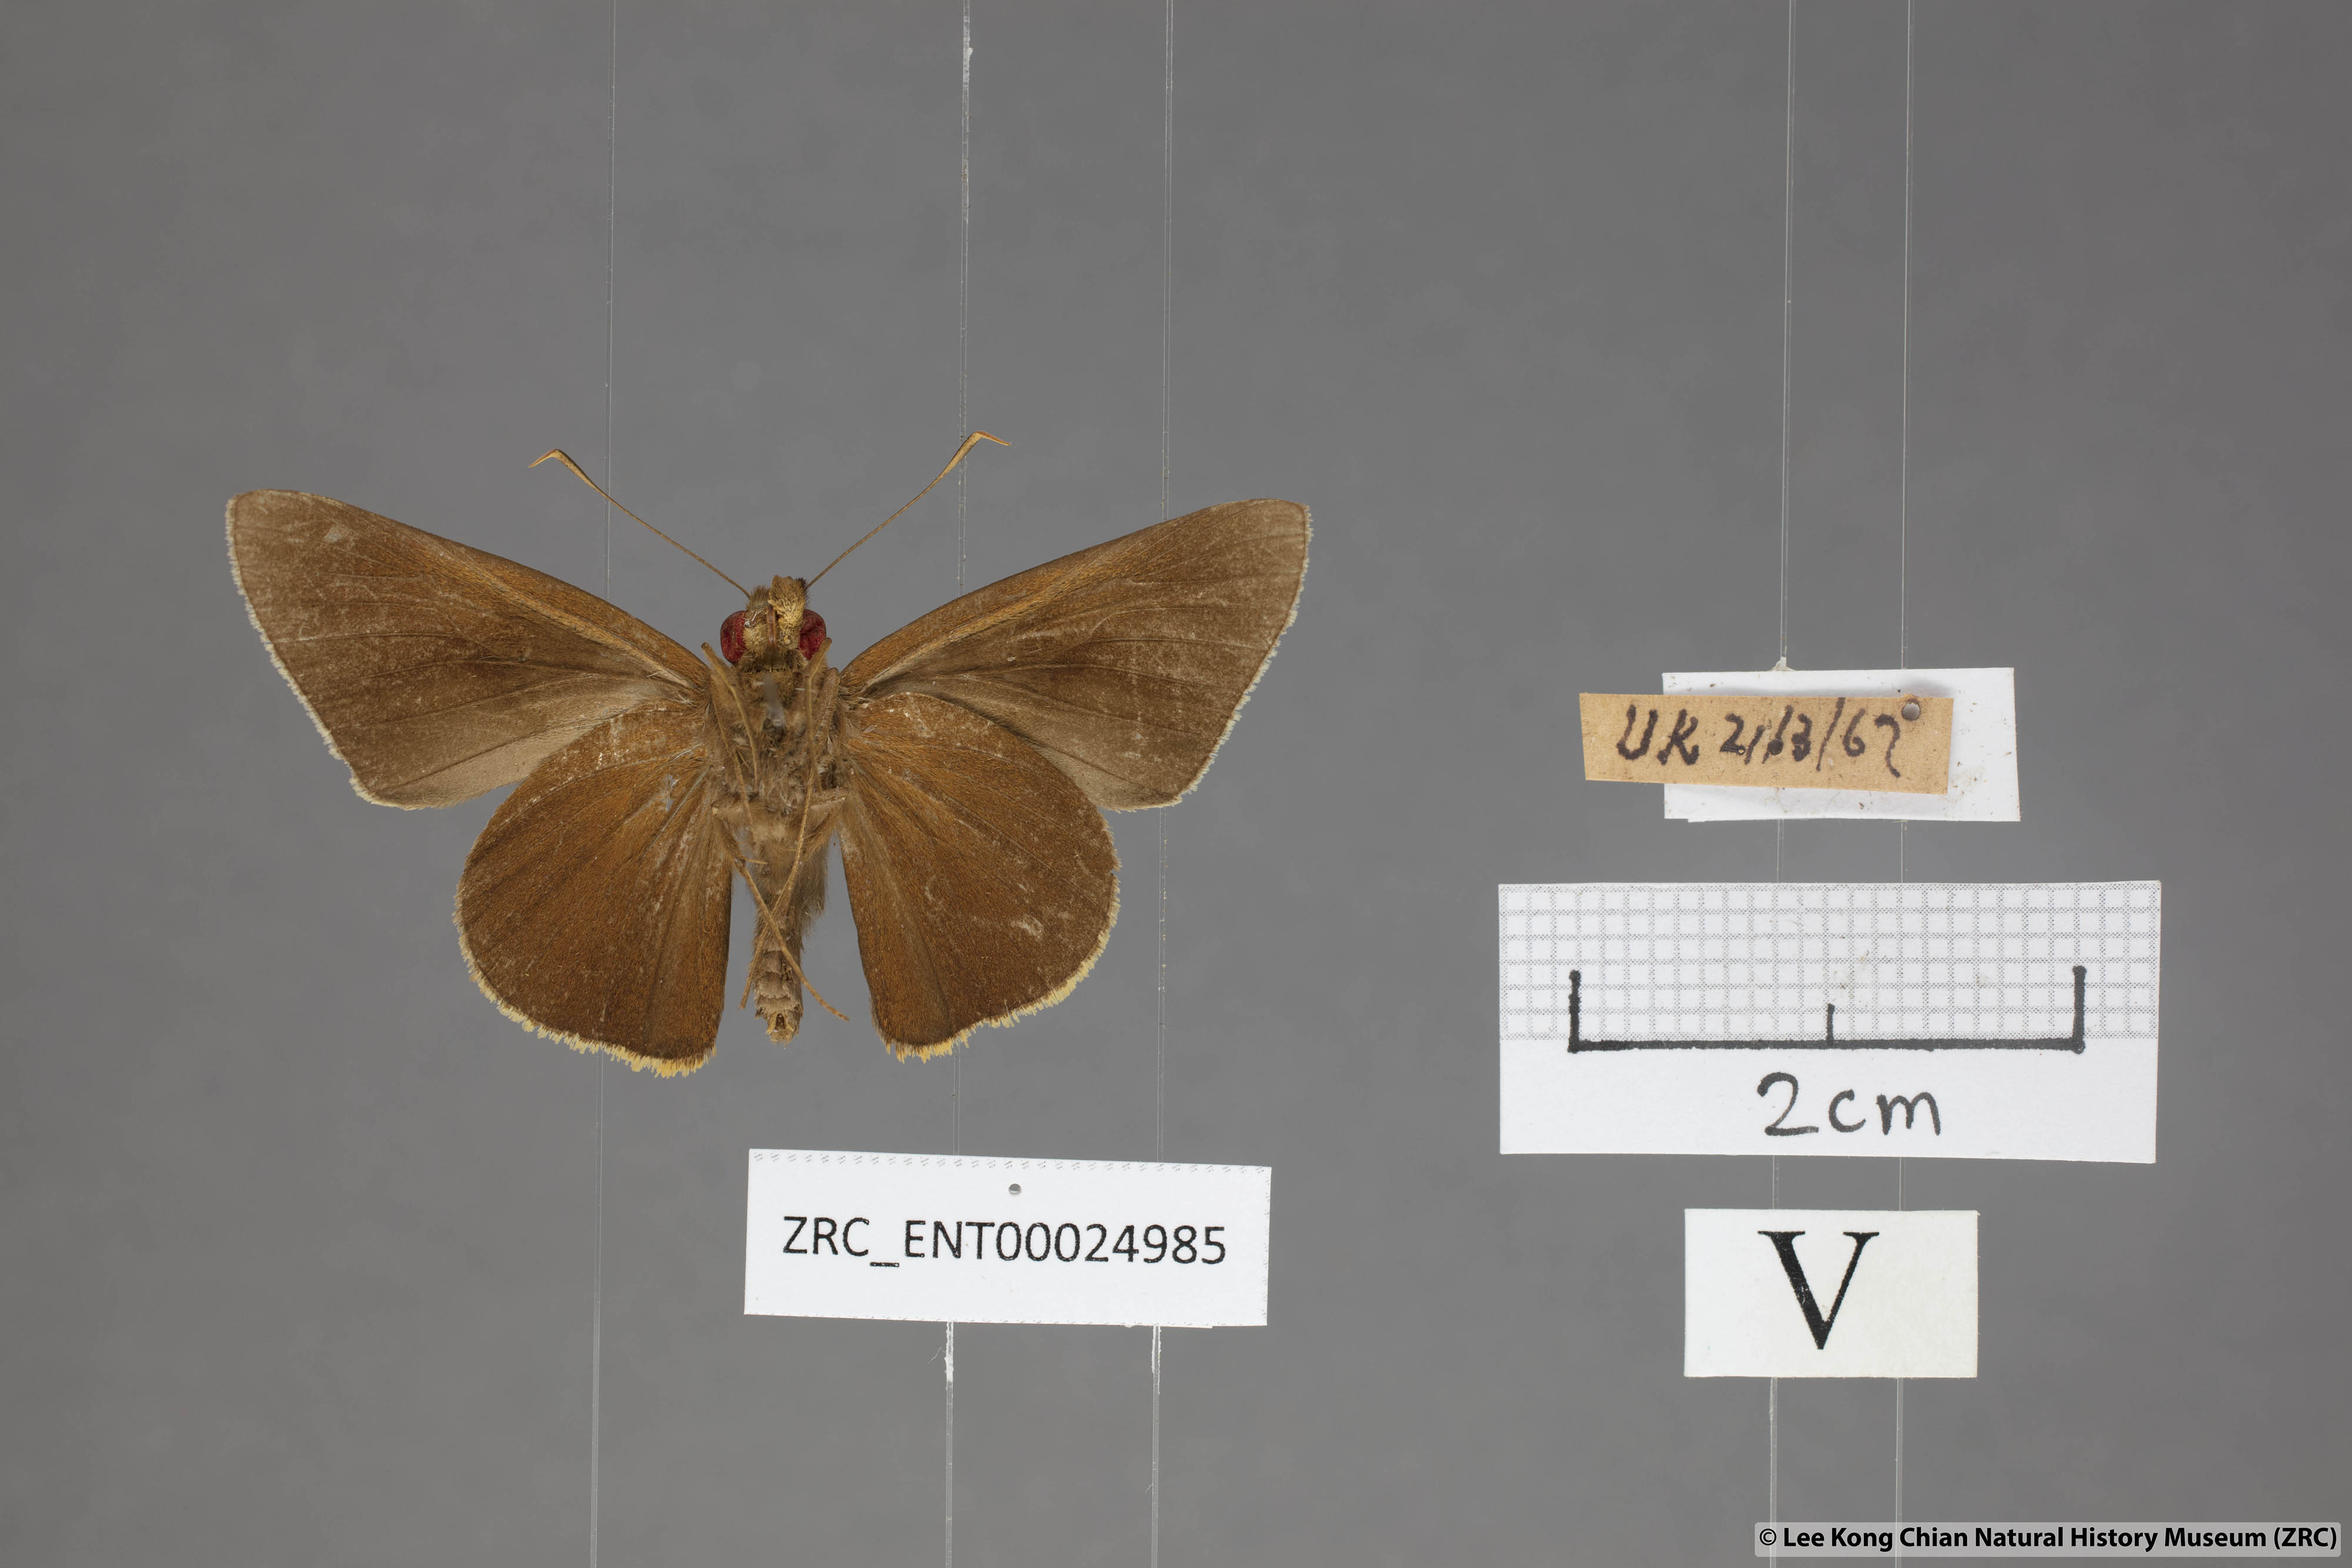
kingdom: Animalia
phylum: Arthropoda
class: Insecta
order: Lepidoptera
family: Hesperiidae
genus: Matapa
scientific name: Matapa druna
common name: Grey-brand redeye
